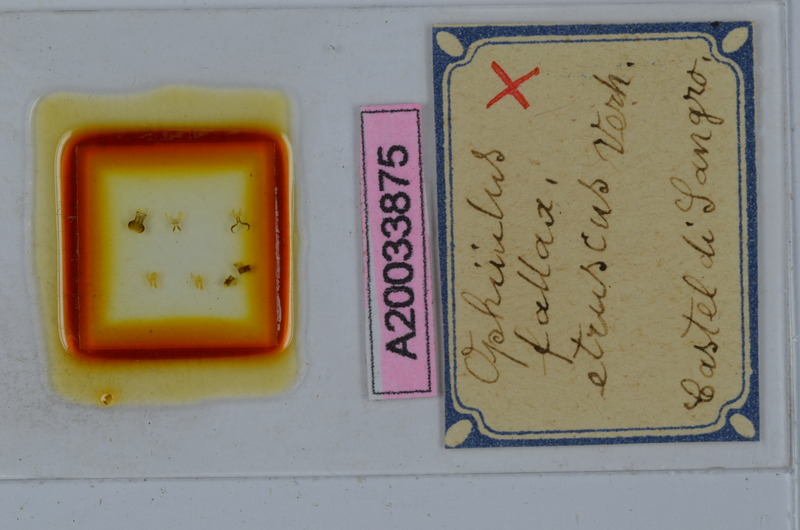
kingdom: Animalia
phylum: Arthropoda
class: Diplopoda
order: Julida
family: Julidae
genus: Ophyiulus
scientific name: Ophyiulus fallax
